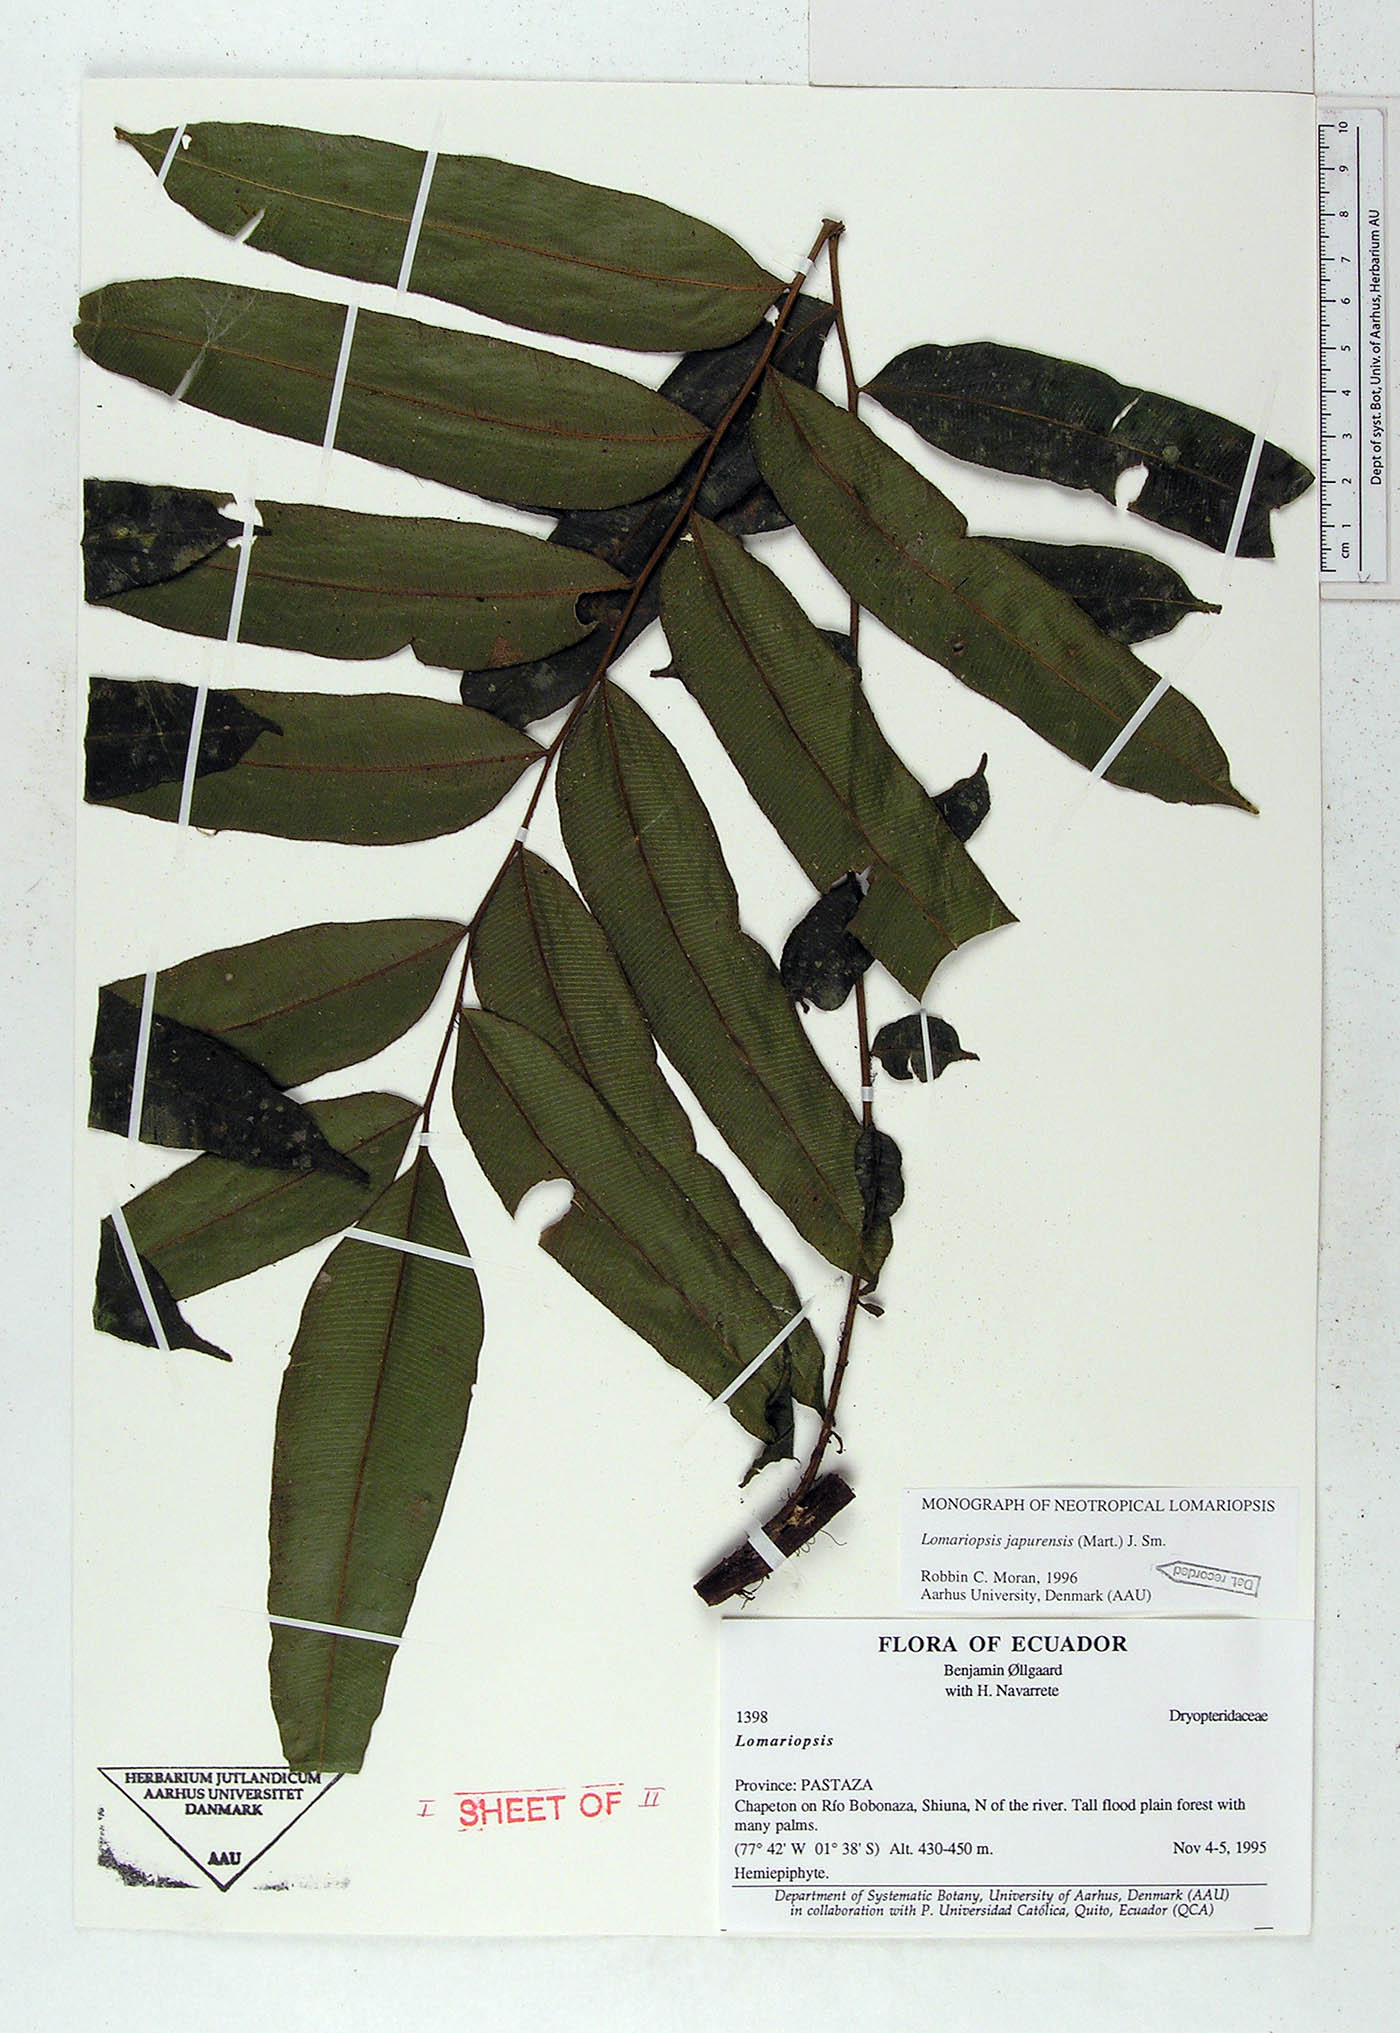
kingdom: Plantae
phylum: Tracheophyta
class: Polypodiopsida
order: Polypodiales
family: Lomariopsidaceae
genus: Lomariopsis
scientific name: Lomariopsis japurensis
